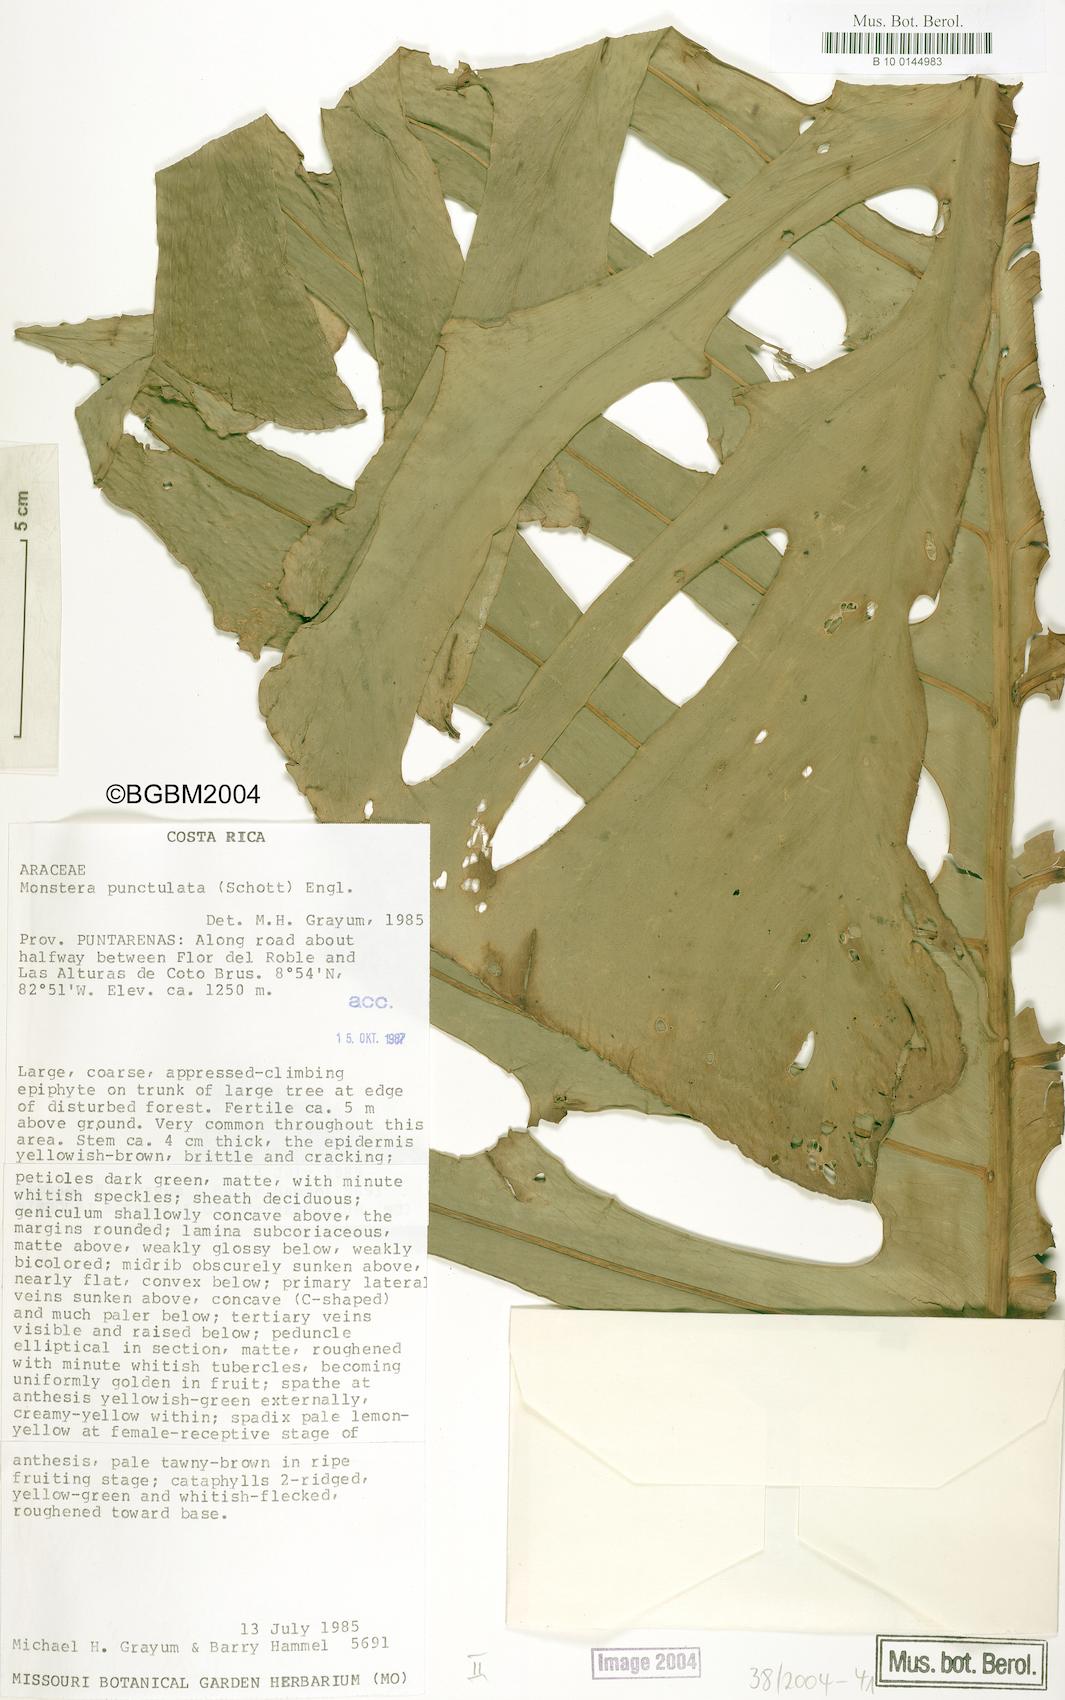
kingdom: Plantae
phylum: Tracheophyta
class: Liliopsida
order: Alismatales
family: Araceae
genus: Monstera
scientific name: Monstera punctulata
